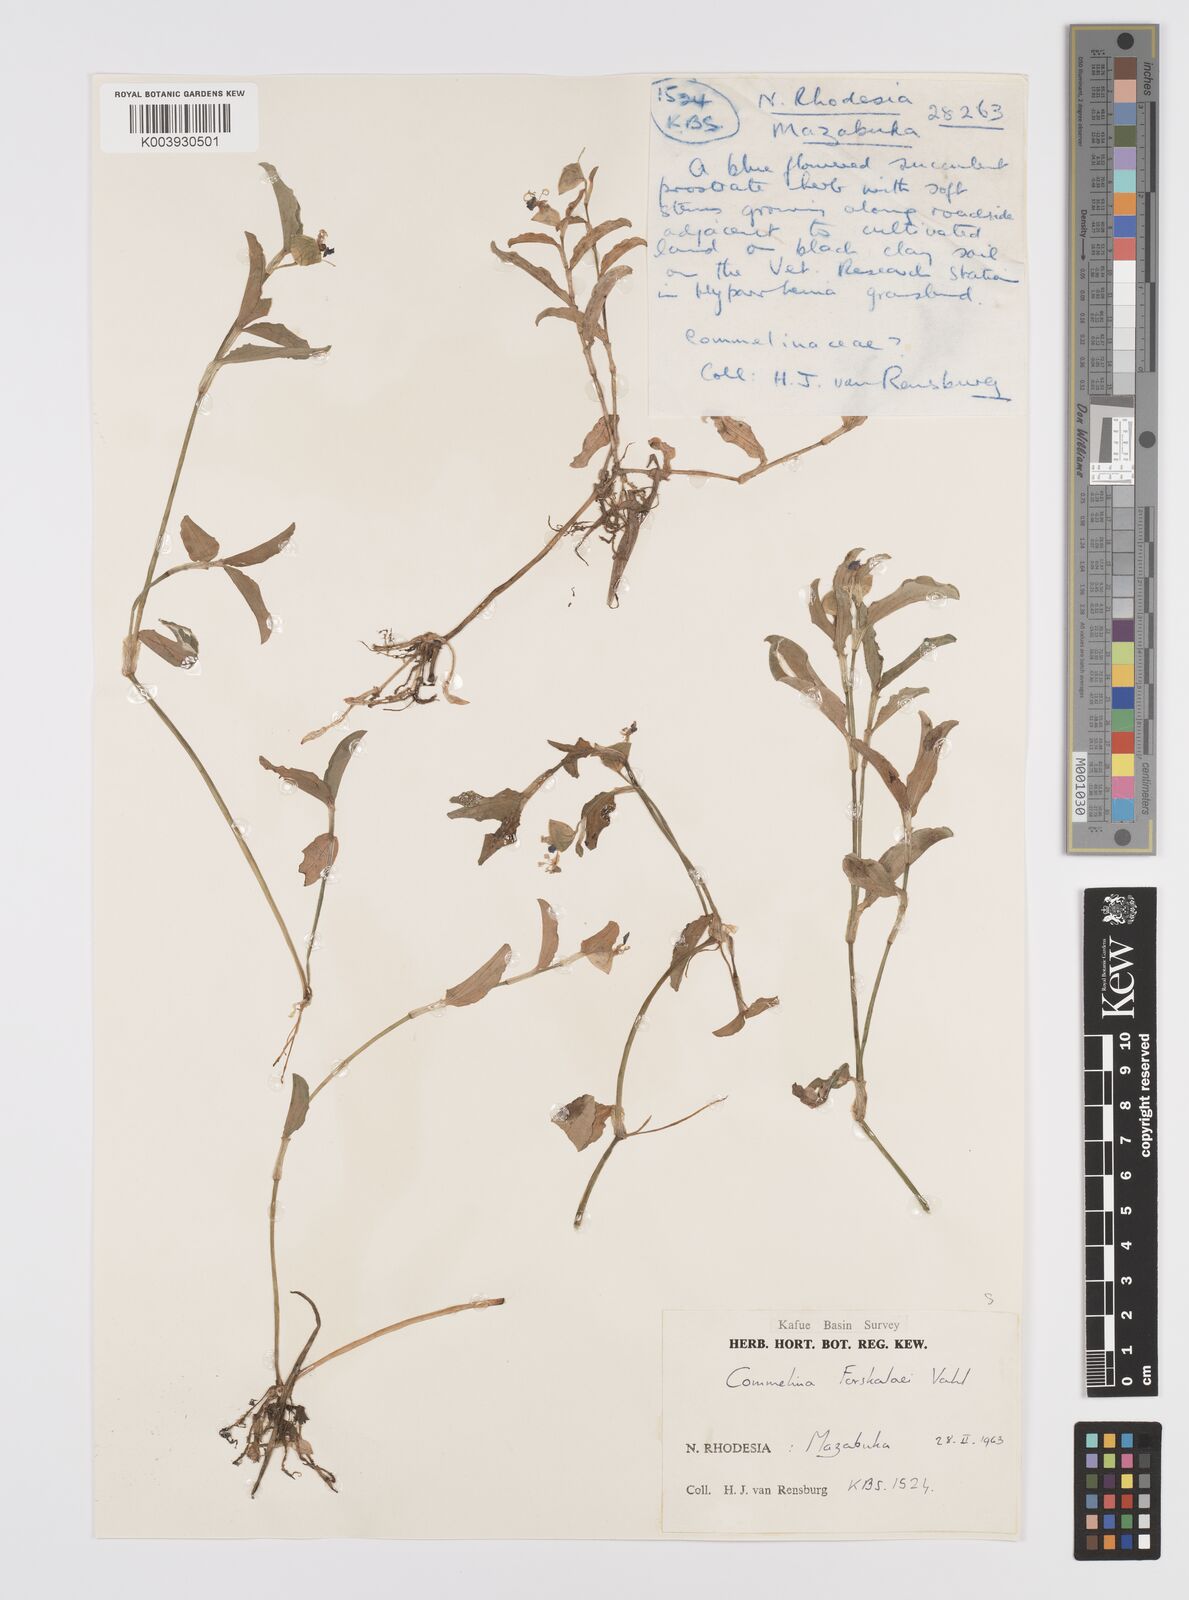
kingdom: Plantae
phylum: Tracheophyta
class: Liliopsida
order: Commelinales
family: Commelinaceae
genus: Commelina
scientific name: Commelina forskaolii
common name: Rat's ear
